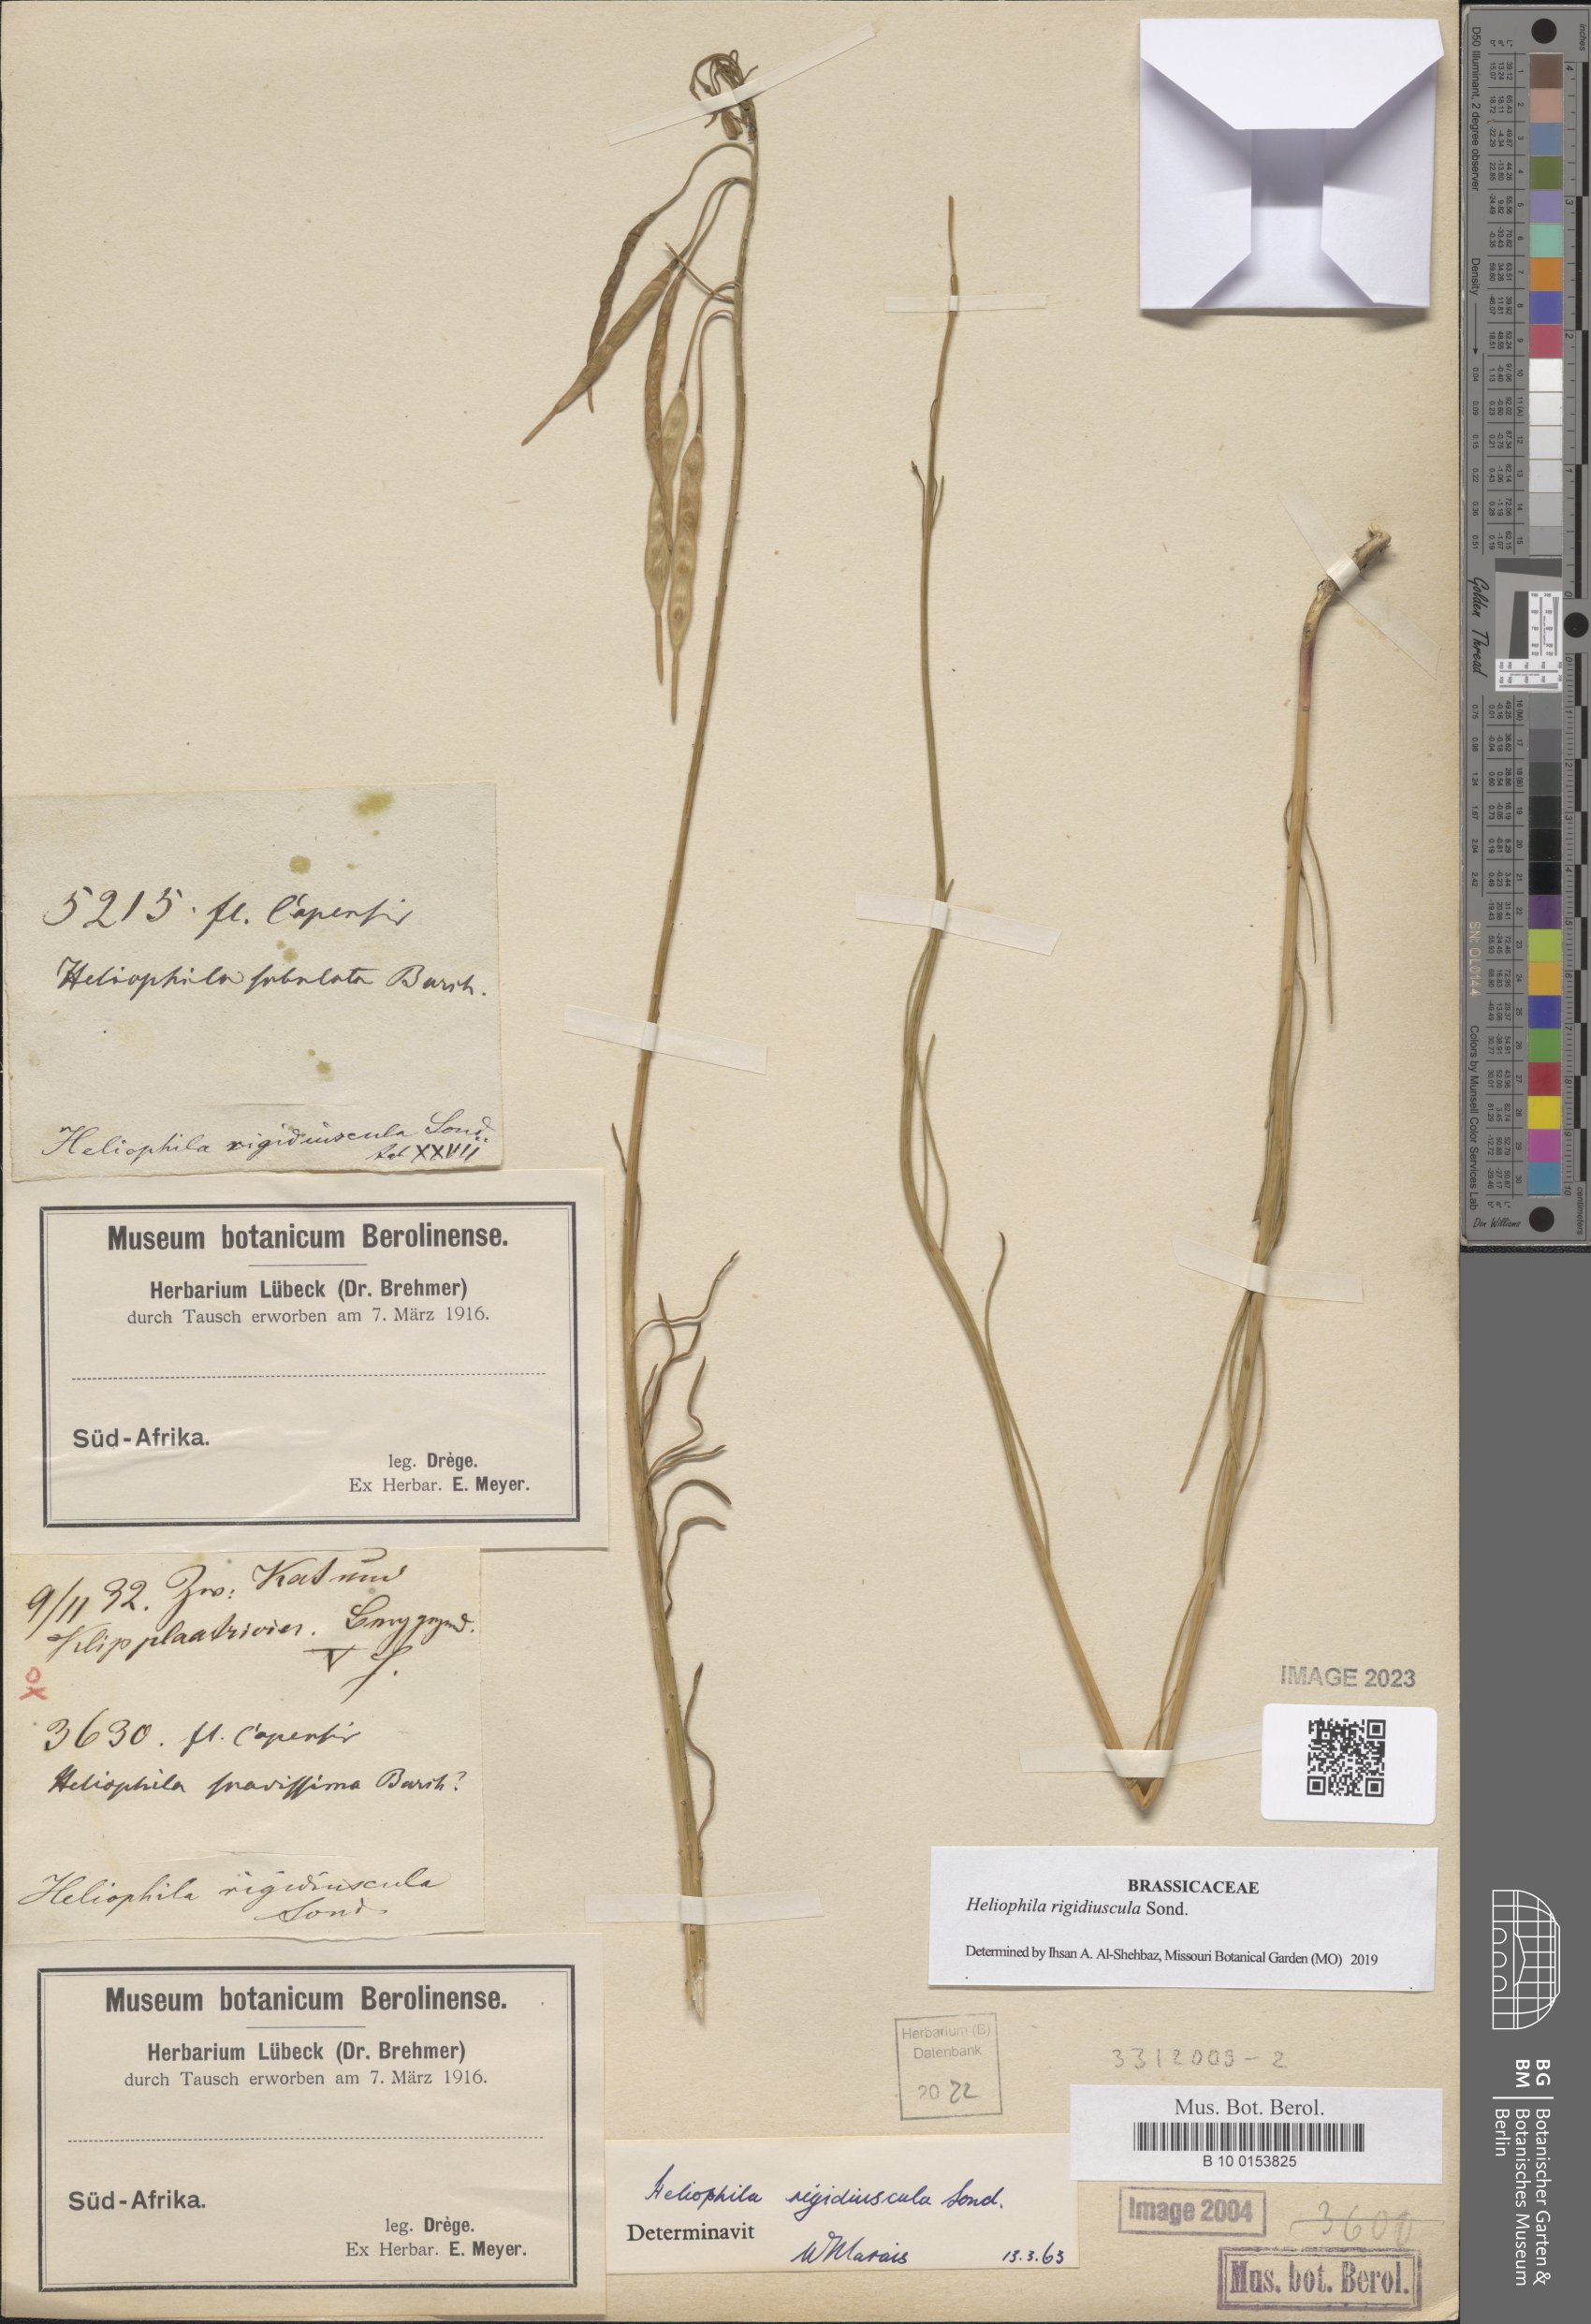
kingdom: Plantae
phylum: Tracheophyta
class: Magnoliopsida
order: Brassicales
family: Brassicaceae
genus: Heliophila
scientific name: Heliophila rigidiuscula
